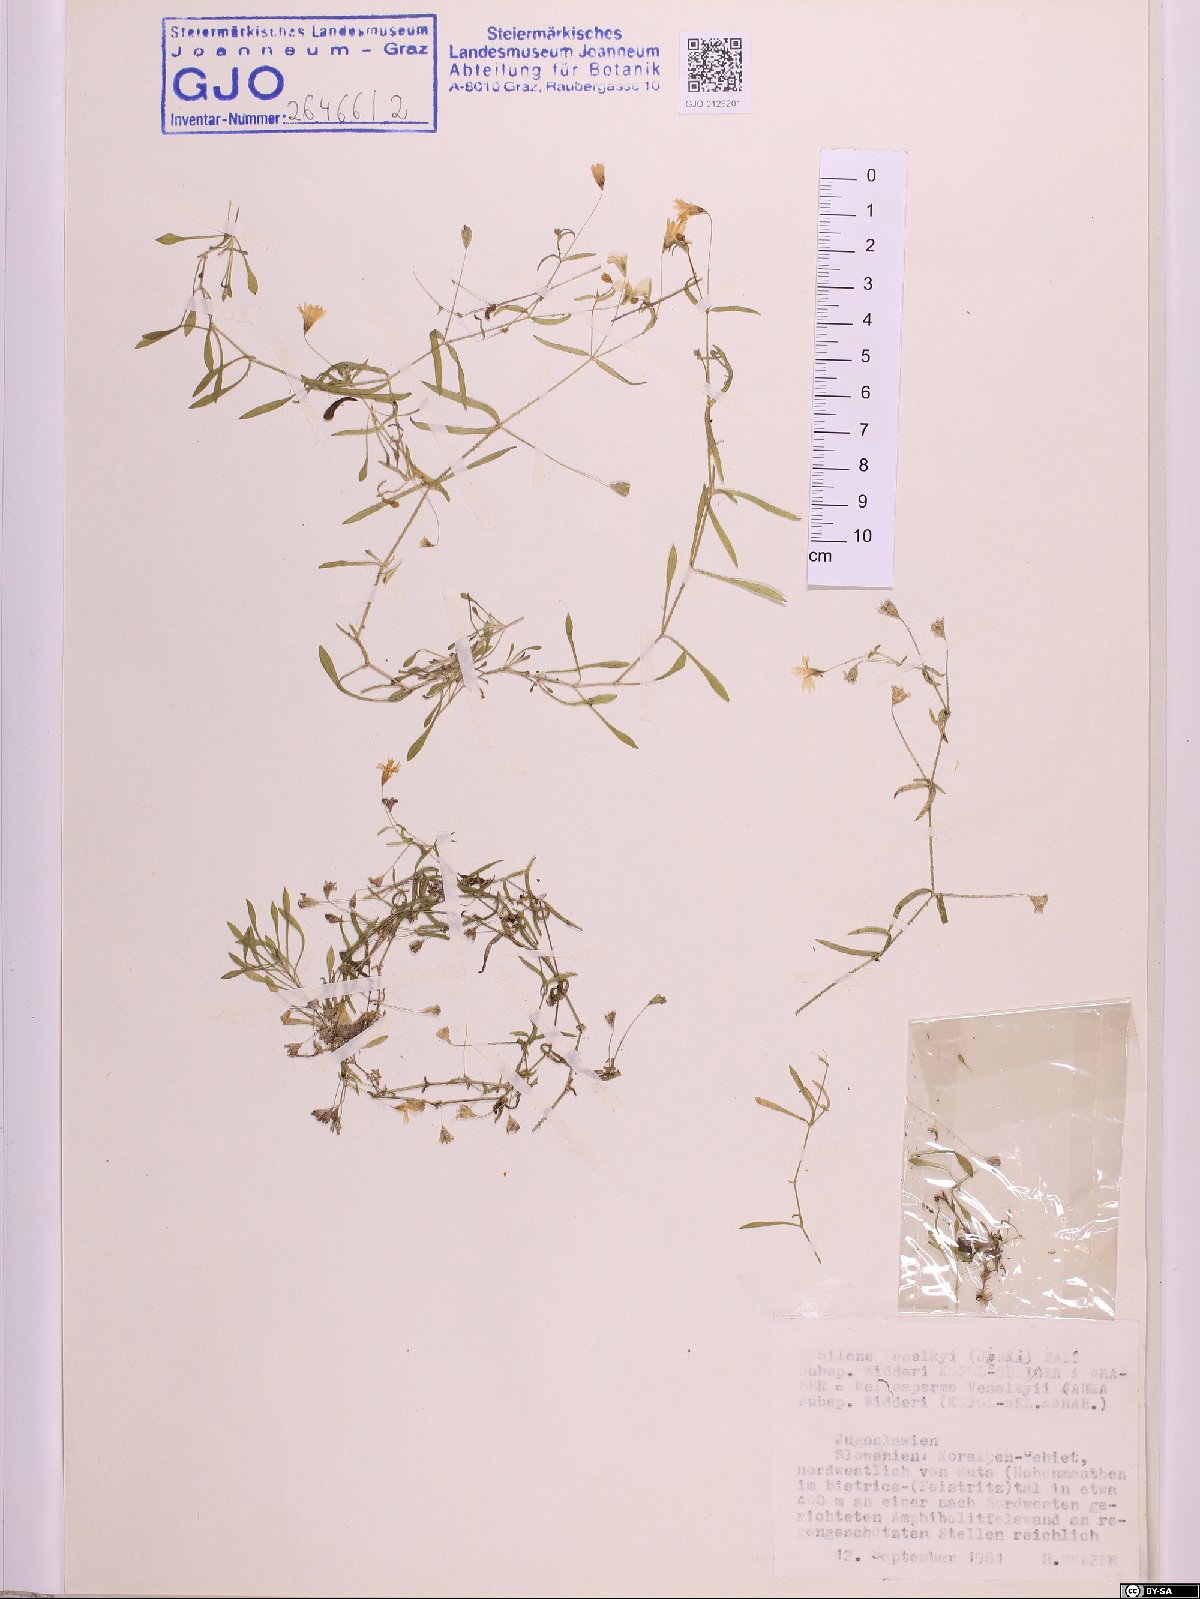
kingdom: Plantae
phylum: Tracheophyta
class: Magnoliopsida
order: Caryophyllales
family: Caryophyllaceae
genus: Heliosperma
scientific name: Heliosperma veselskyi
